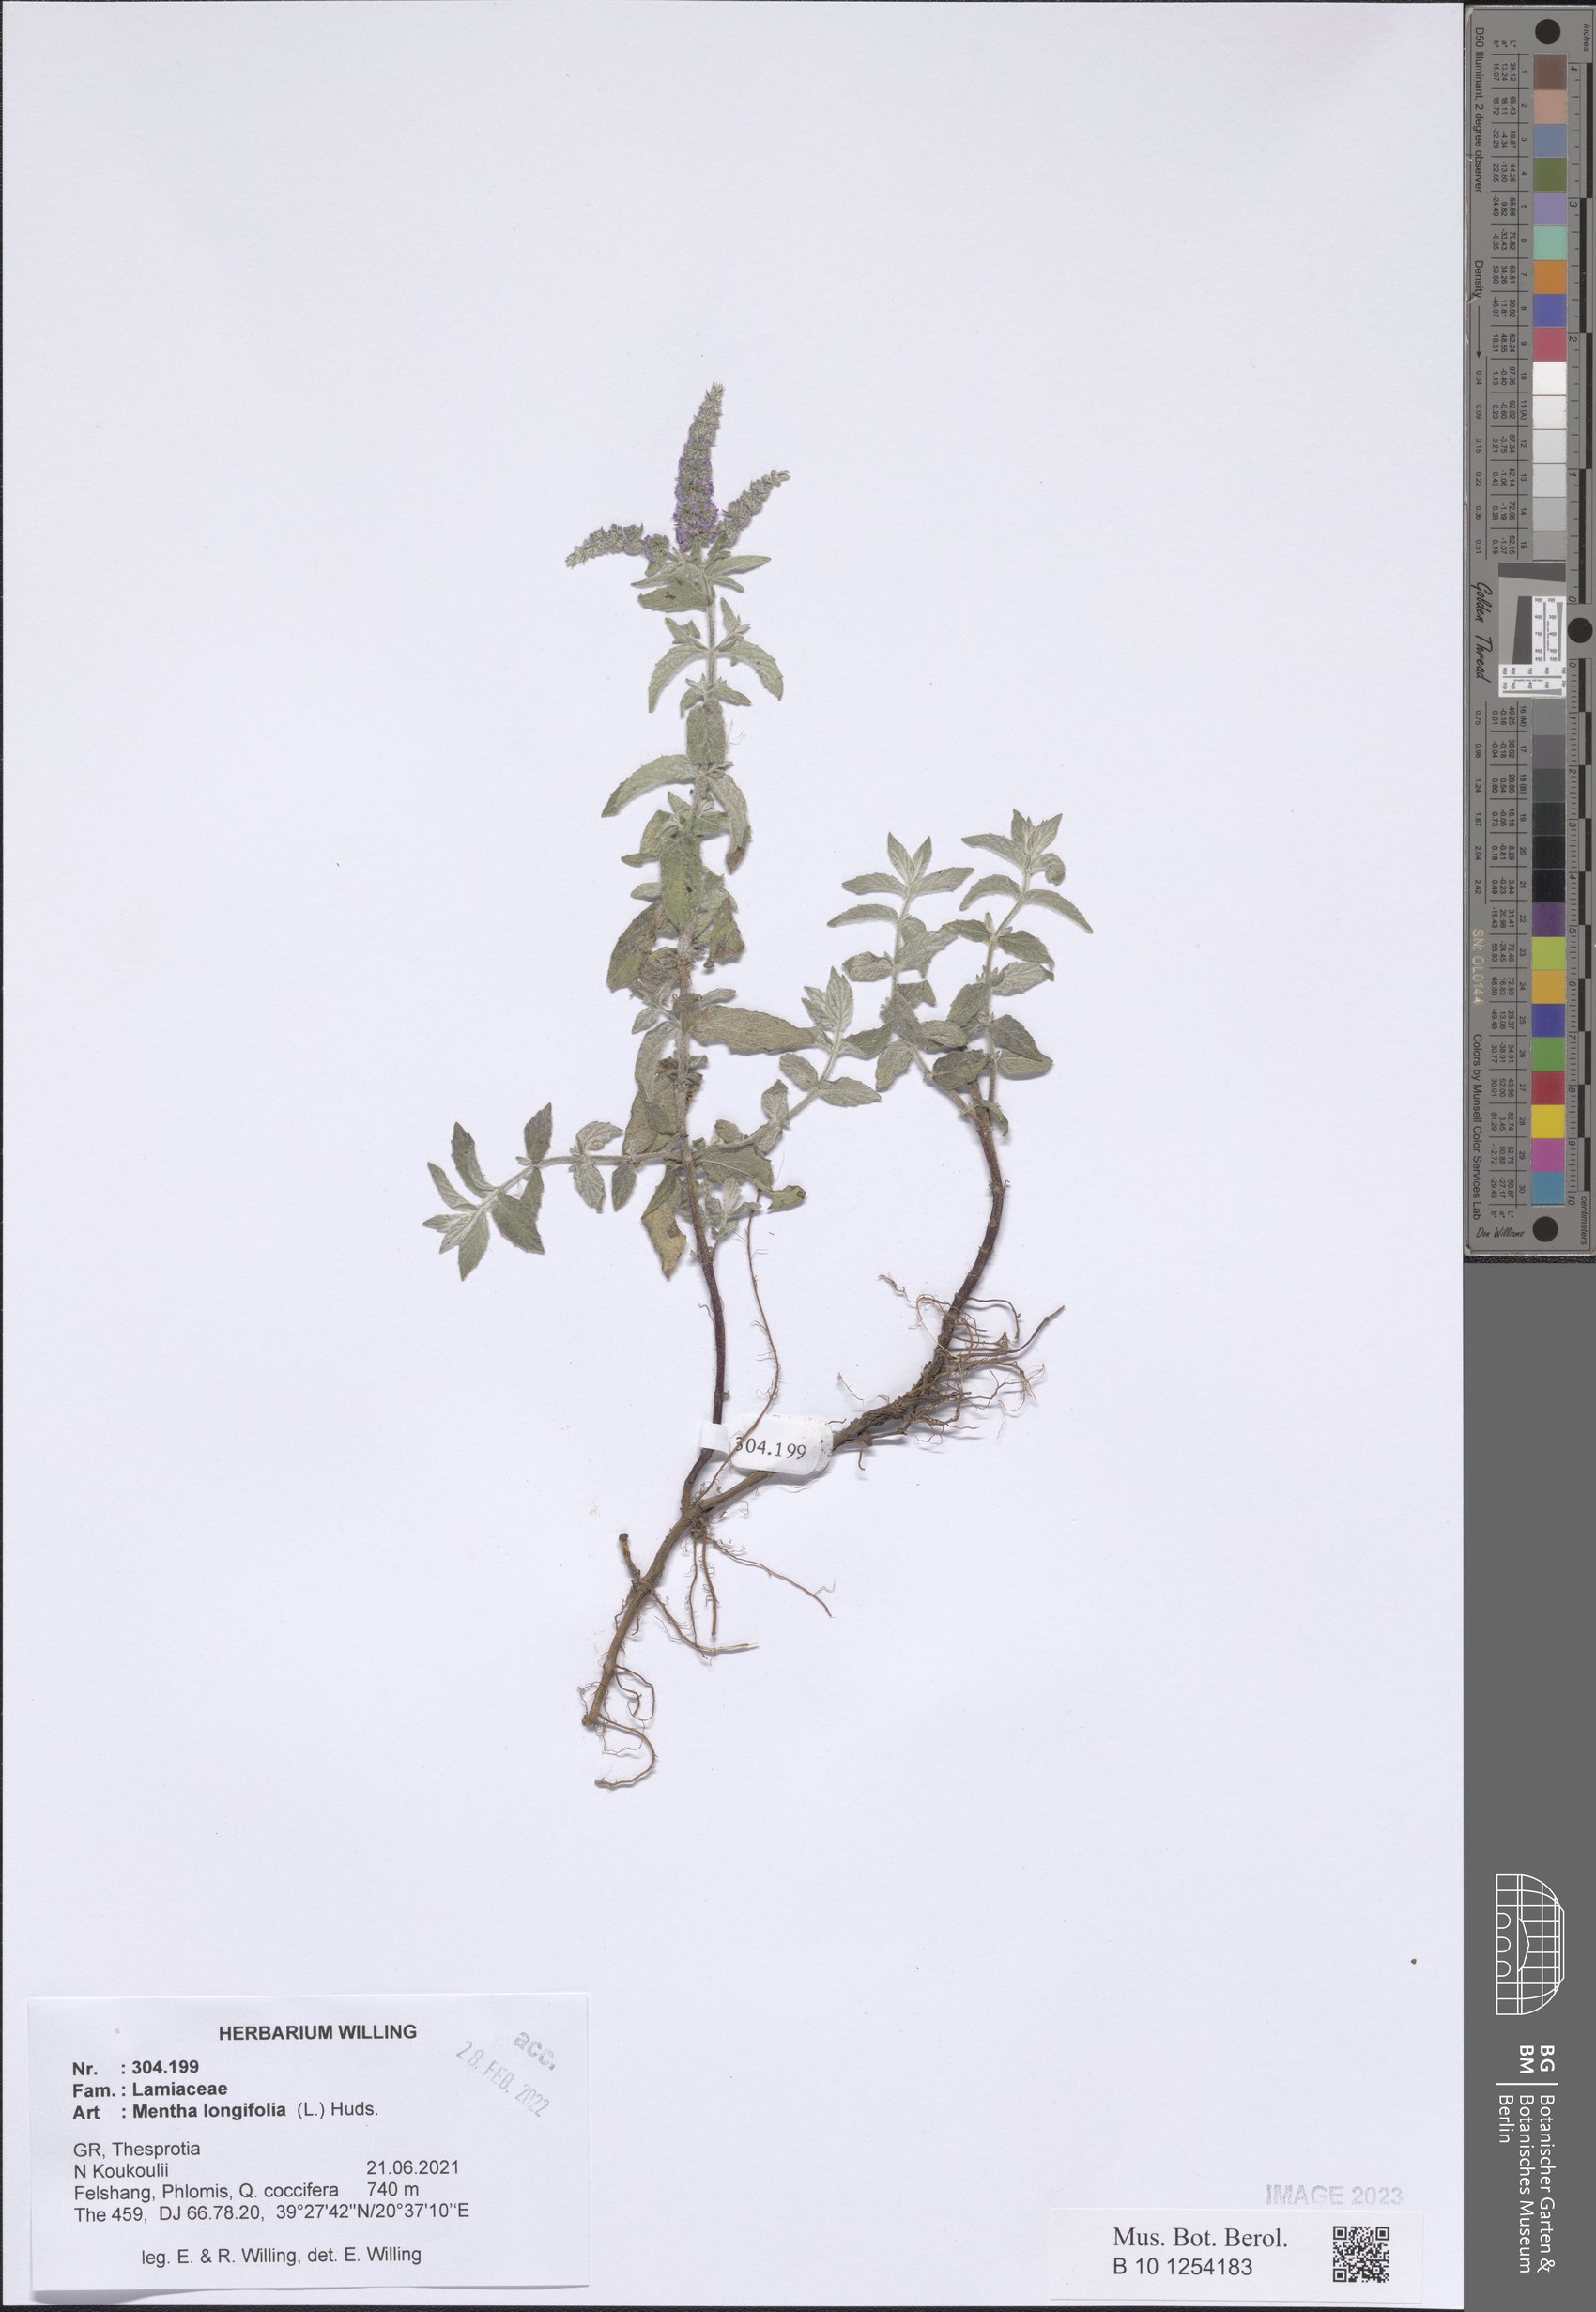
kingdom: Plantae
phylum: Tracheophyta
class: Magnoliopsida
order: Lamiales
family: Lamiaceae
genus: Mentha
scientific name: Mentha longifolia
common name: Horse mint
